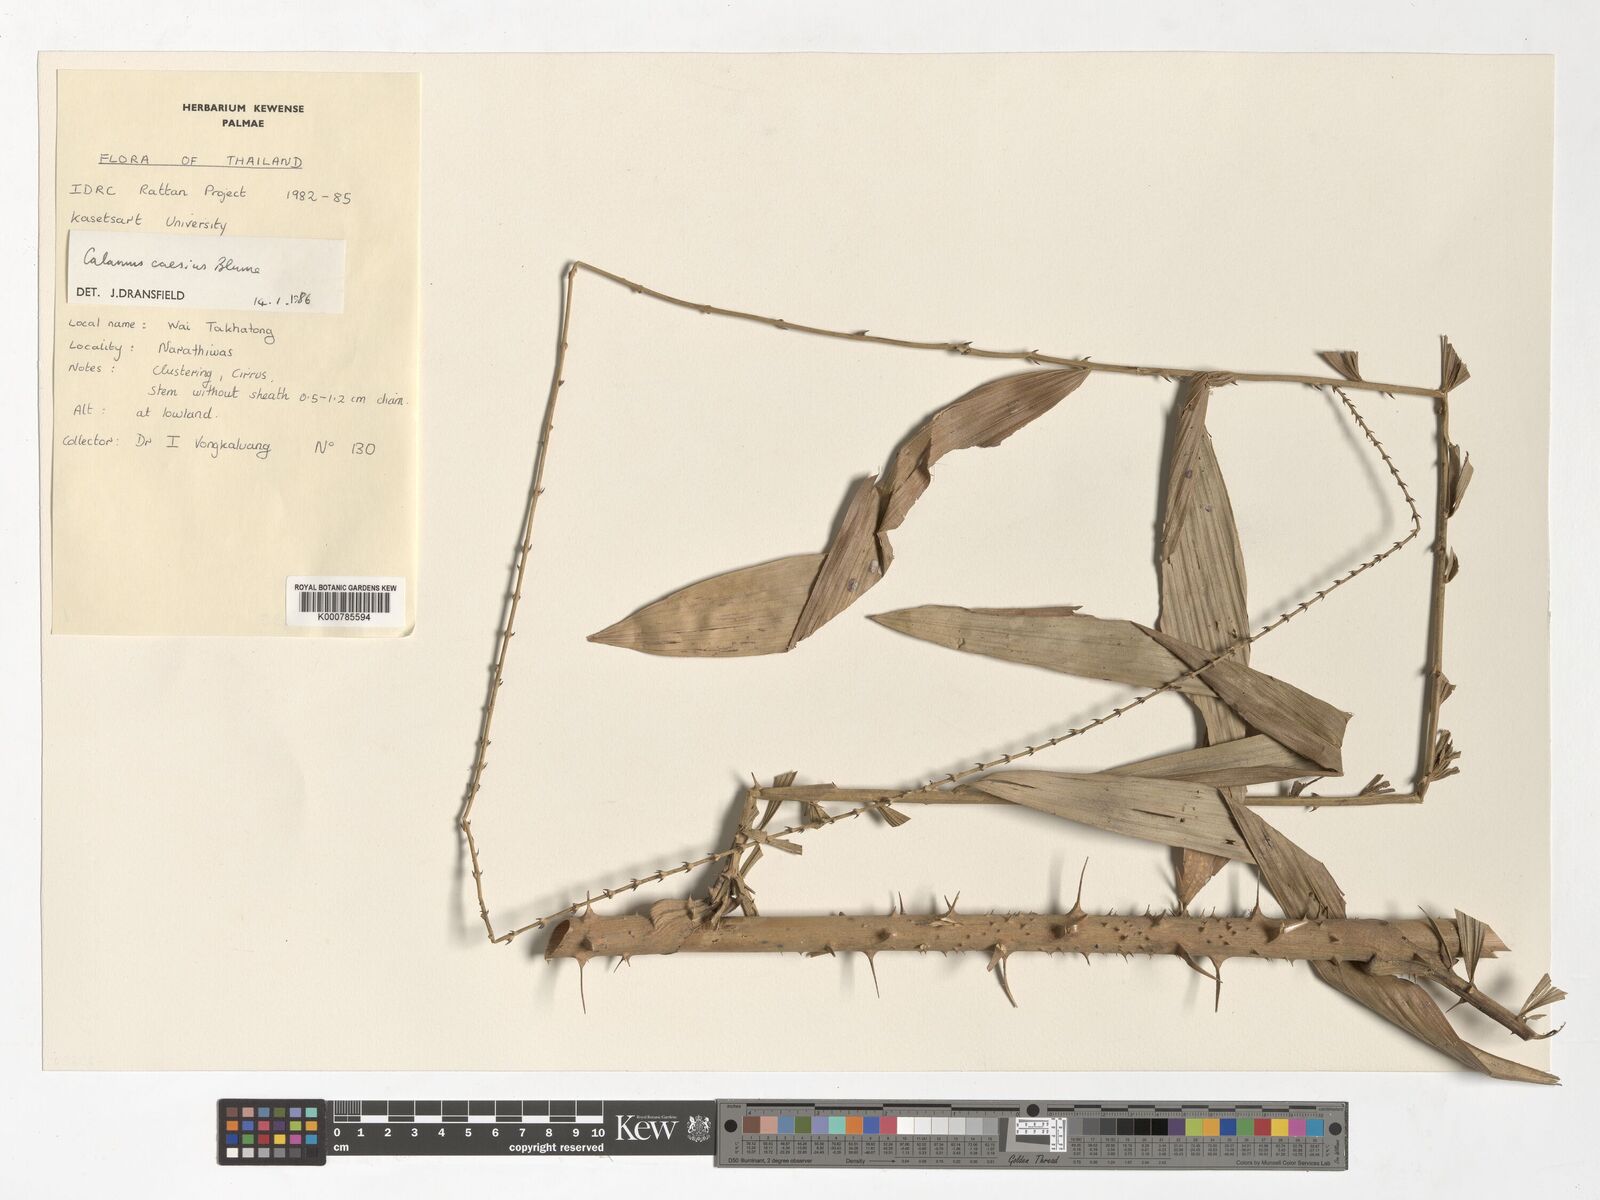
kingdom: Plantae
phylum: Tracheophyta
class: Liliopsida
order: Arecales
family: Arecaceae
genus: Calamus
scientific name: Calamus caesius
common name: Rattan palm
